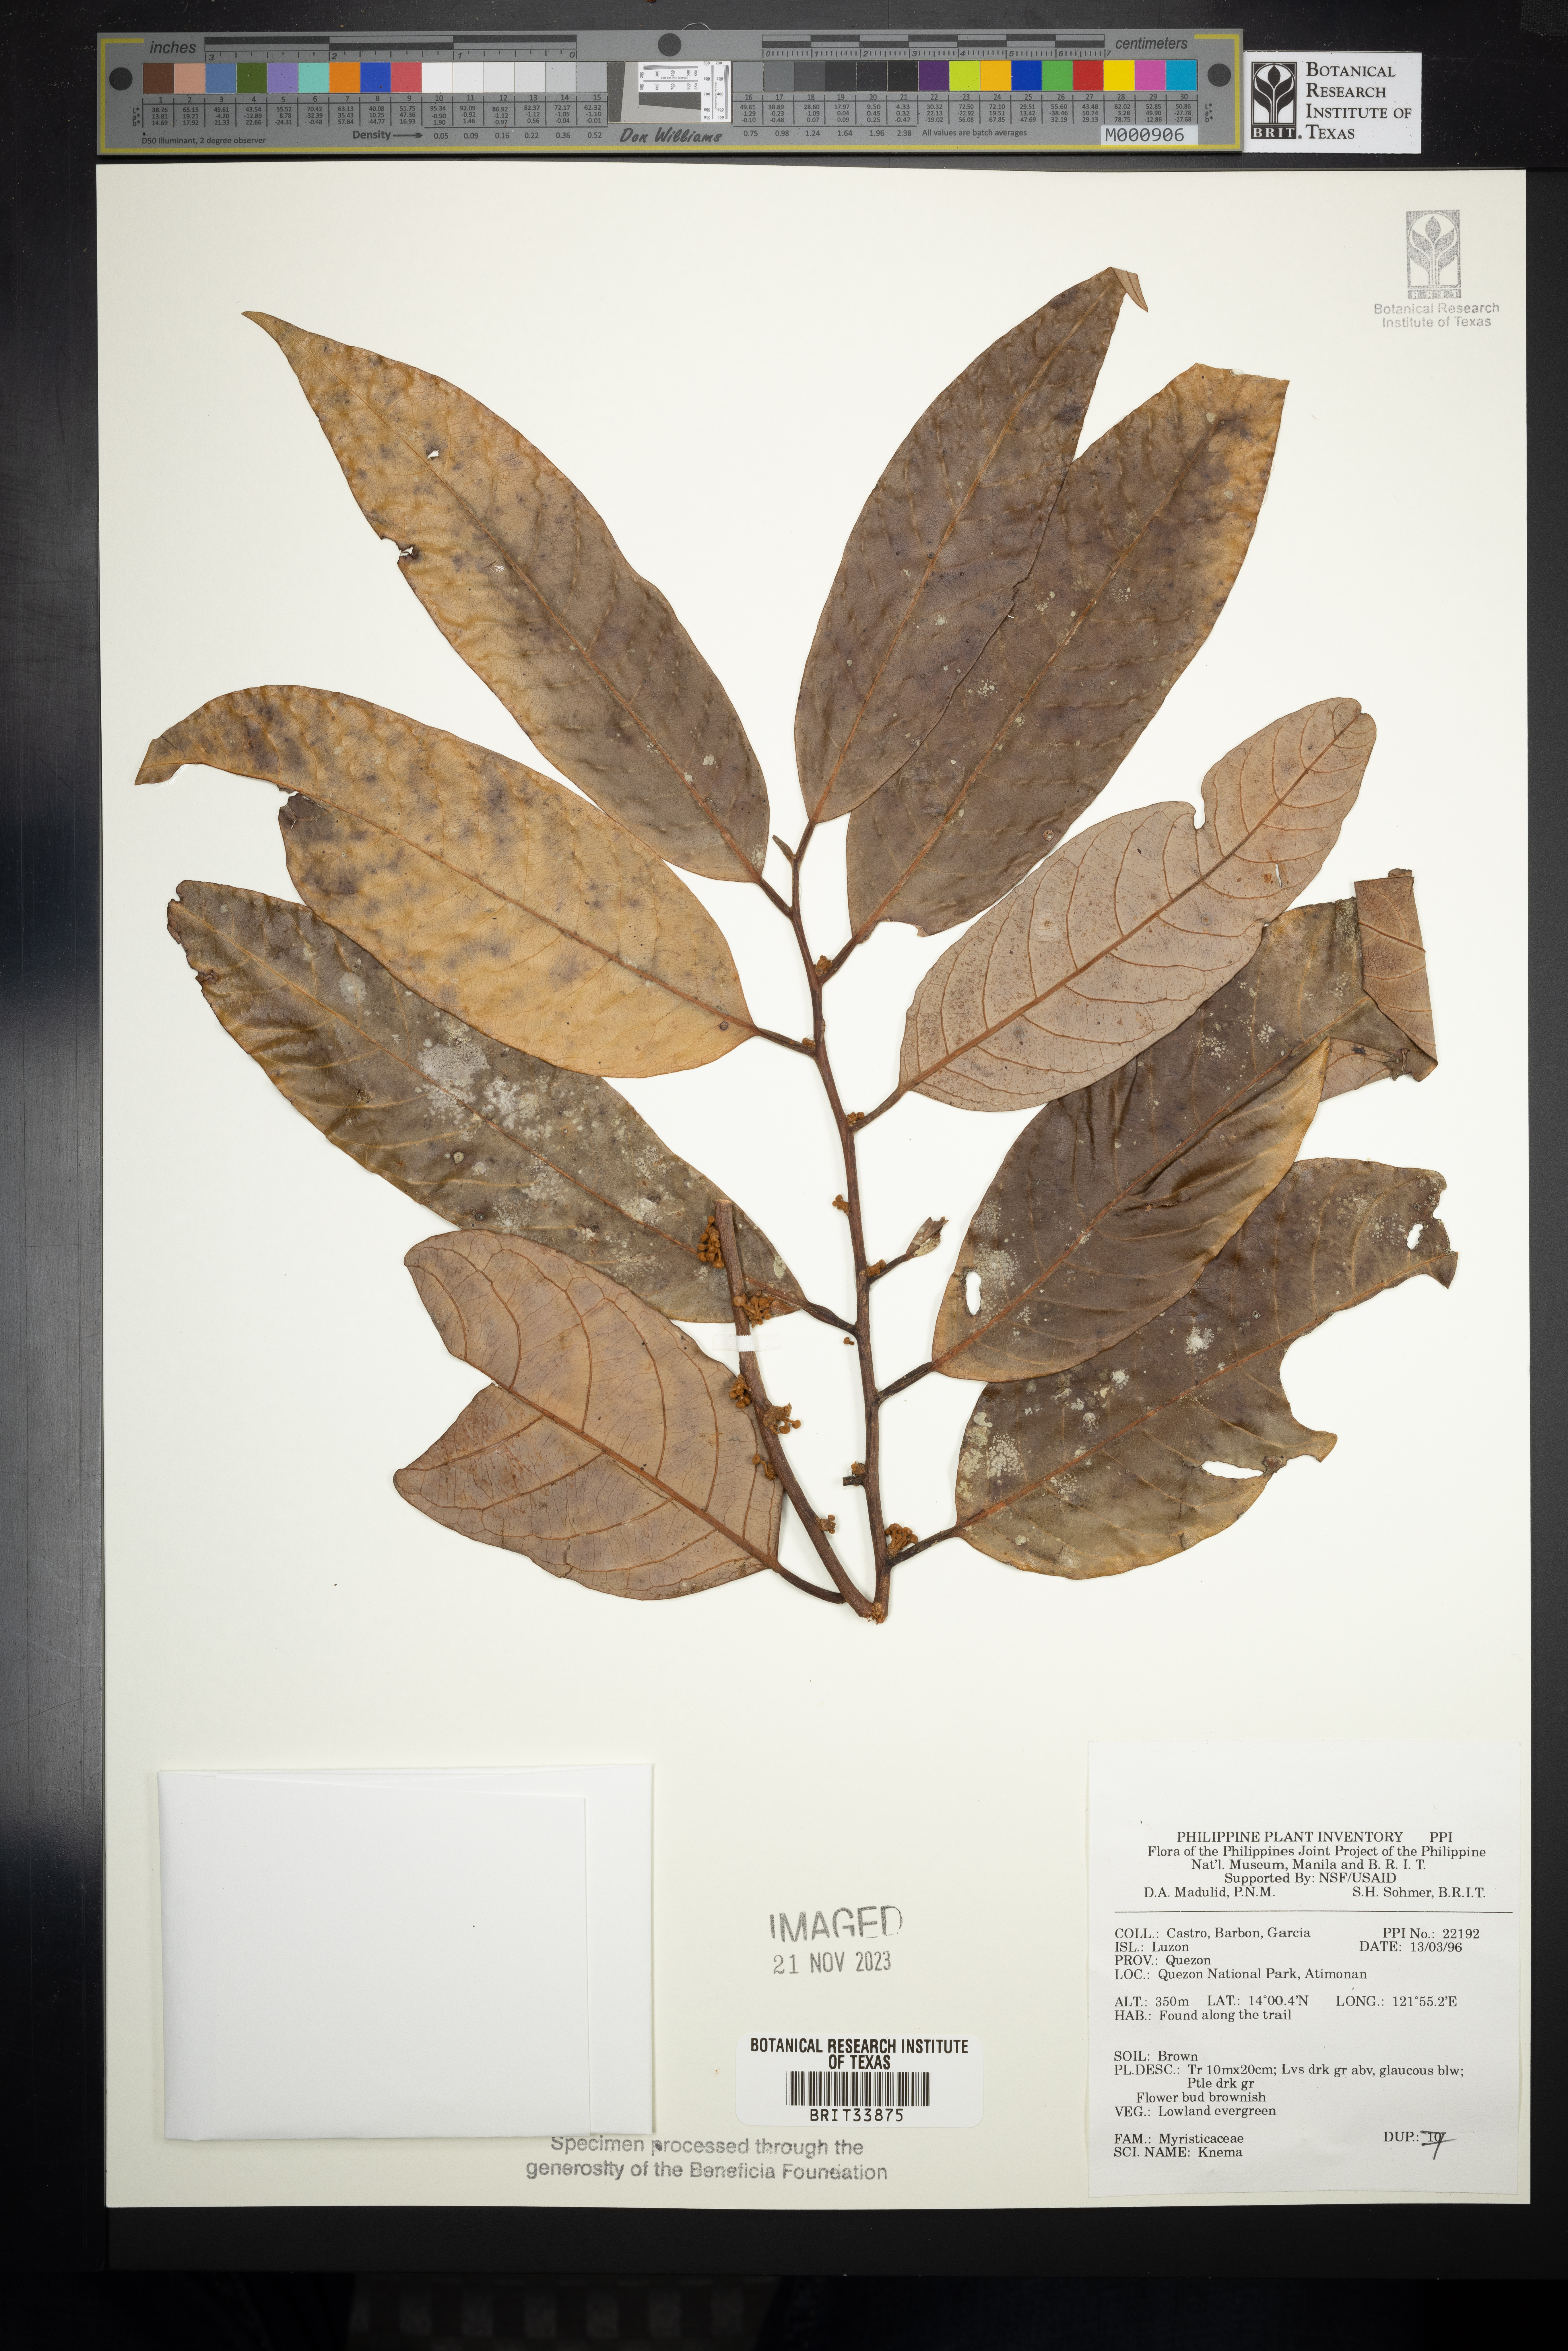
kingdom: Plantae
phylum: Tracheophyta
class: Magnoliopsida
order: Magnoliales
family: Myristicaceae
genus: Knema
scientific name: Knema
